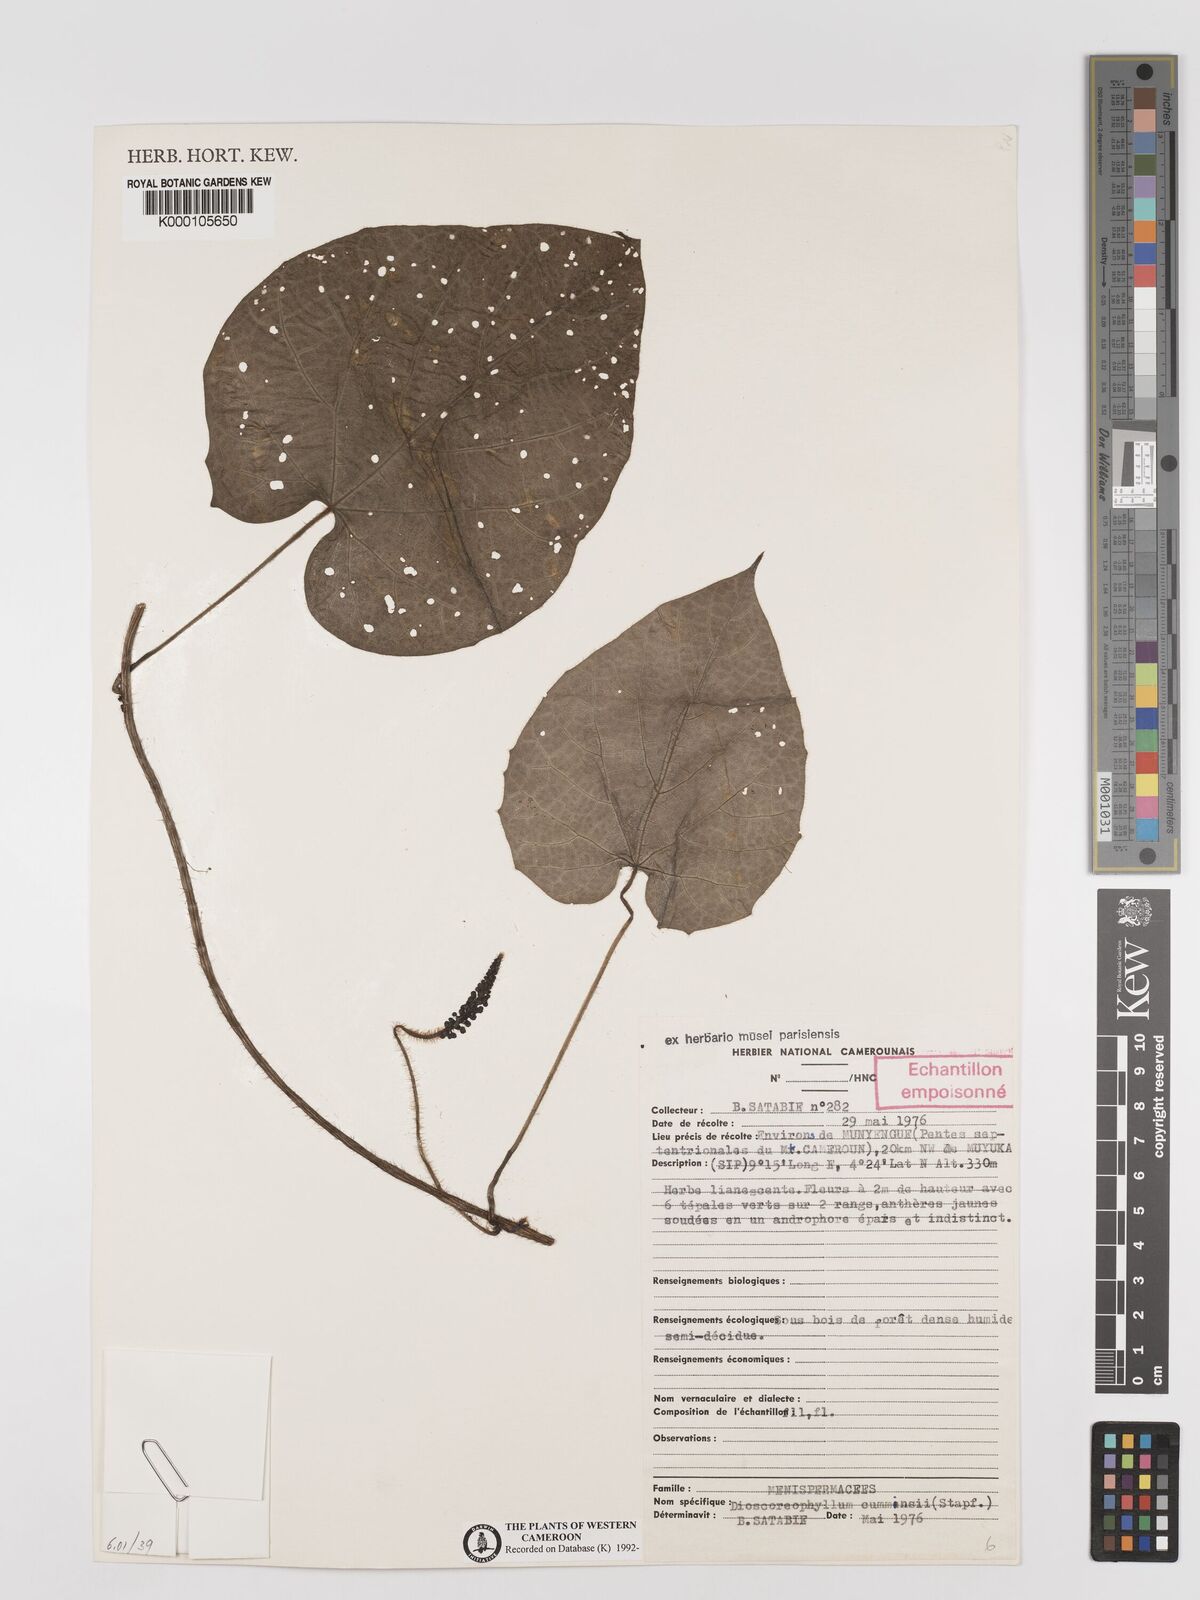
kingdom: Plantae
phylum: Tracheophyta
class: Magnoliopsida
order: Ranunculales
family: Menispermaceae
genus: Dioscoreophyllum
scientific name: Dioscoreophyllum volkensii
